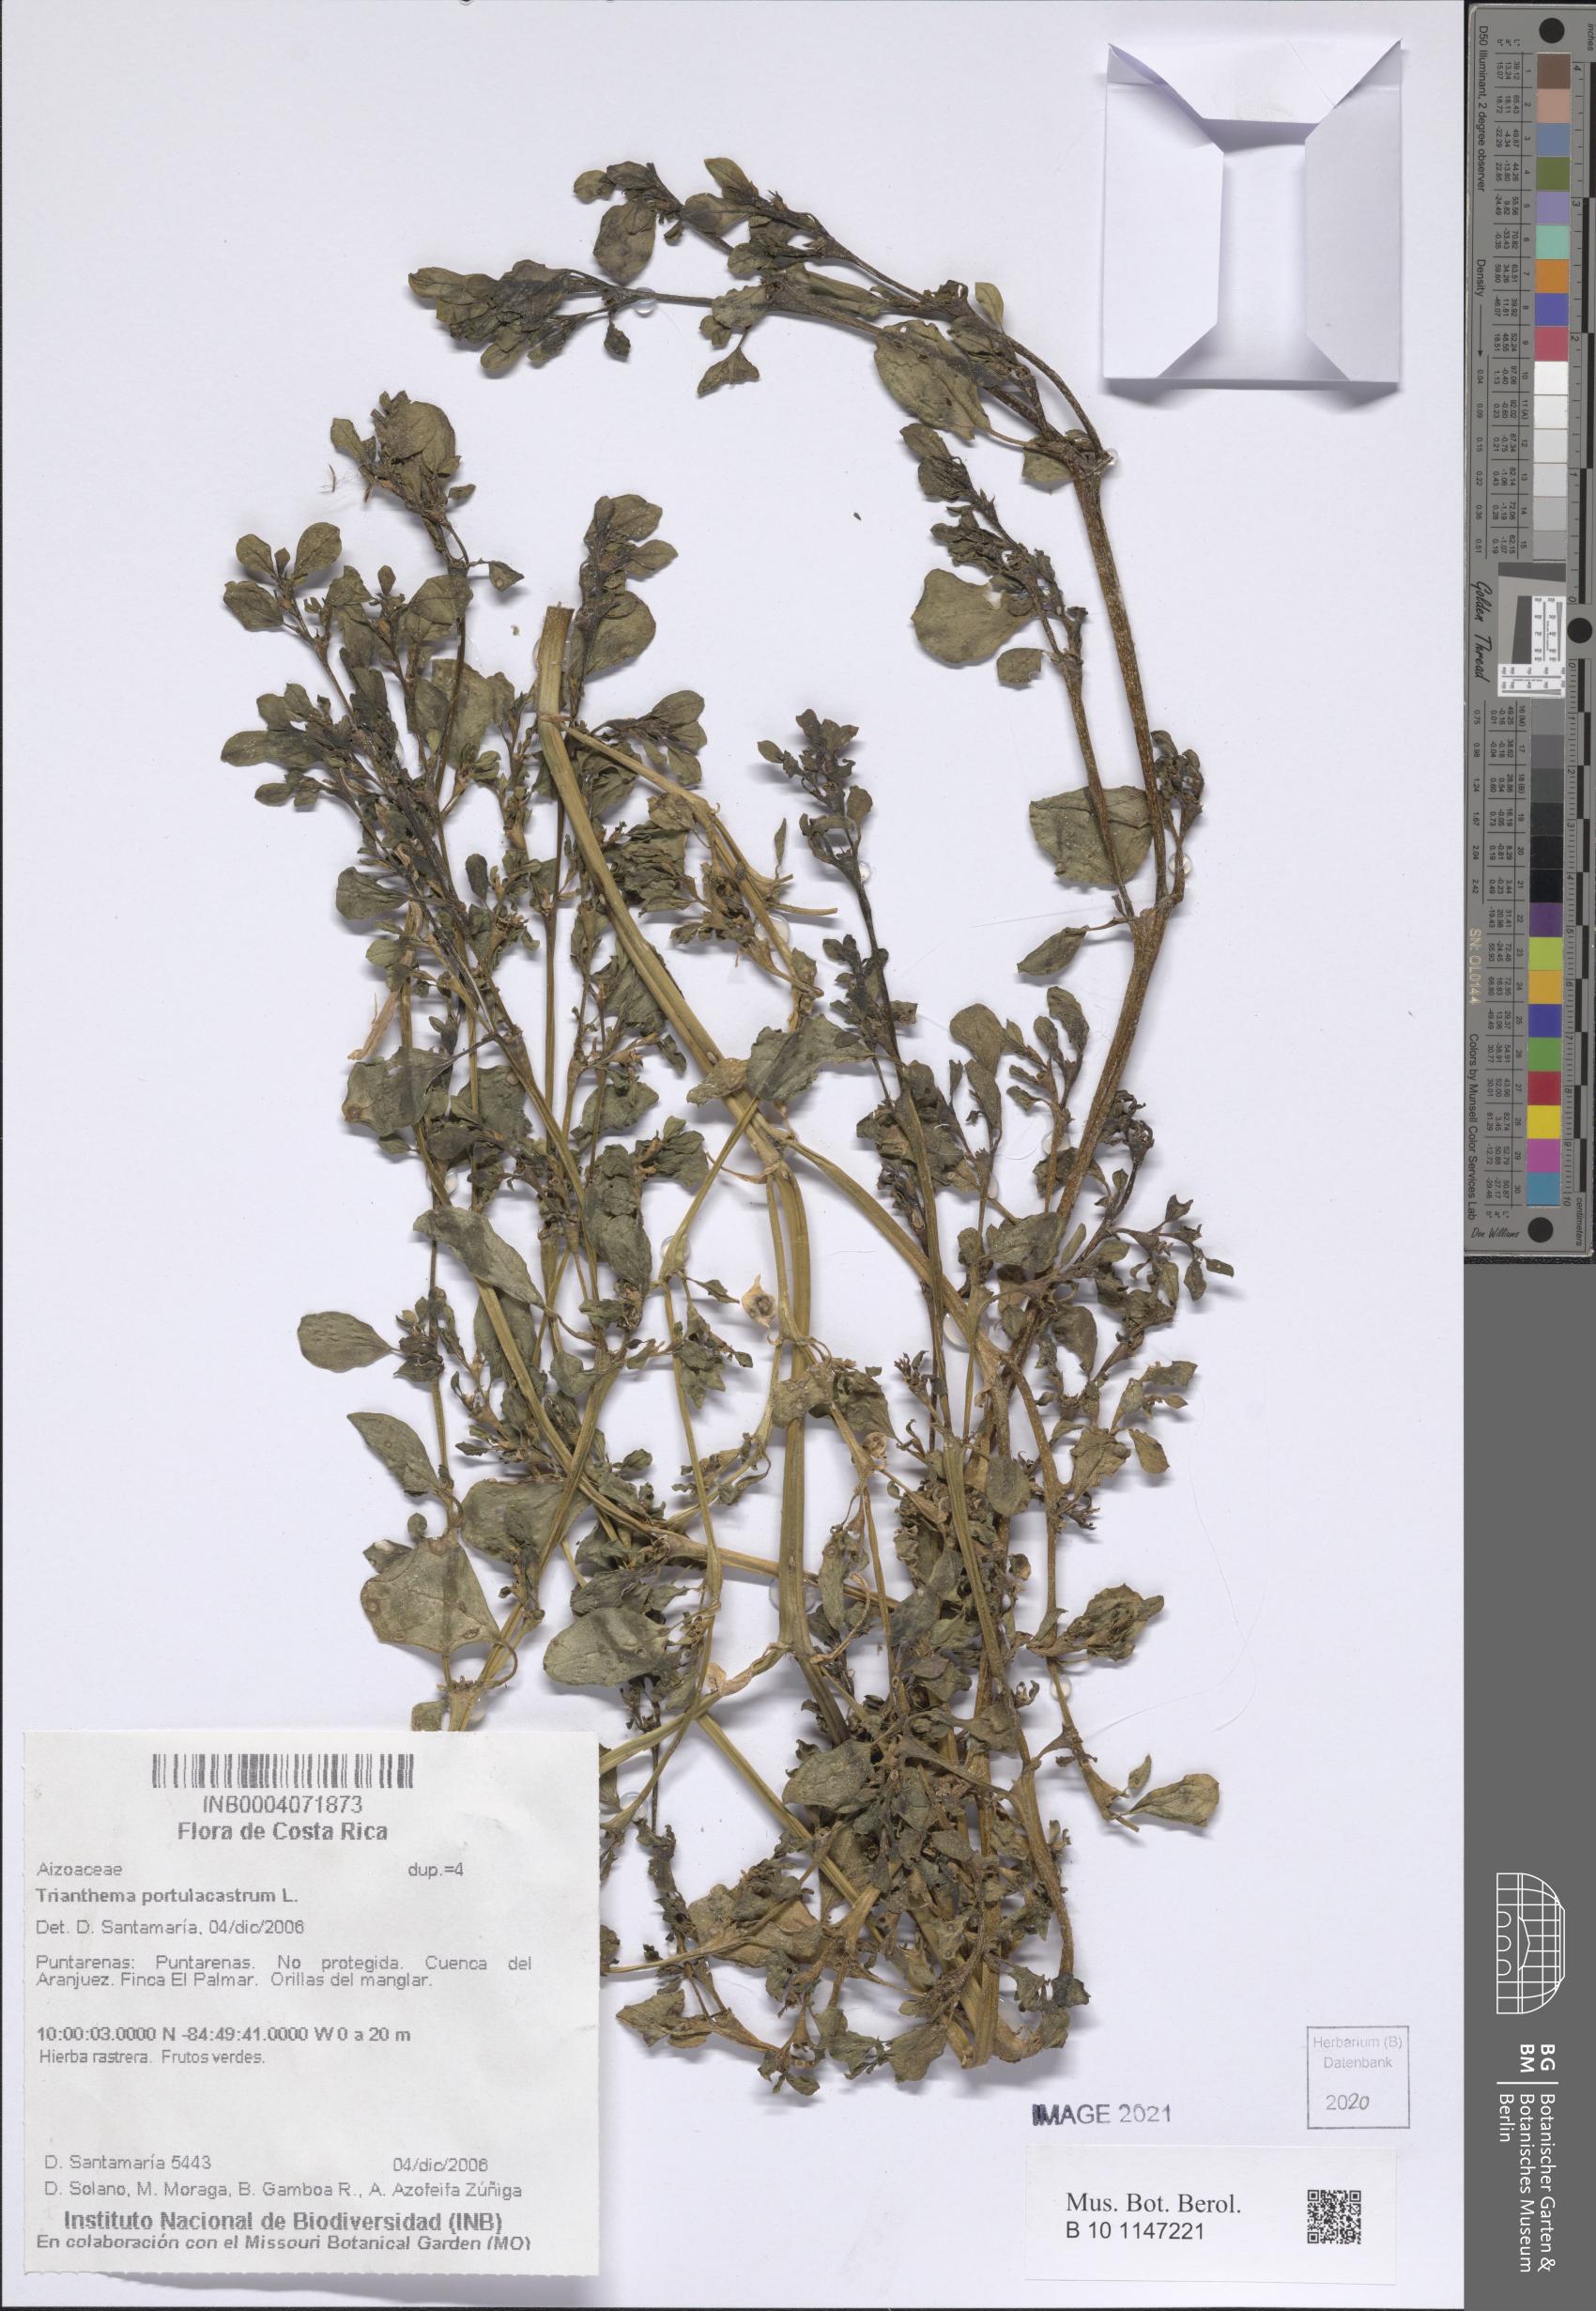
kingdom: Plantae
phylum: Tracheophyta
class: Magnoliopsida
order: Caryophyllales
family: Aizoaceae
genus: Trianthema
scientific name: Trianthema portulacastrum
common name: Desert horsepurslane
